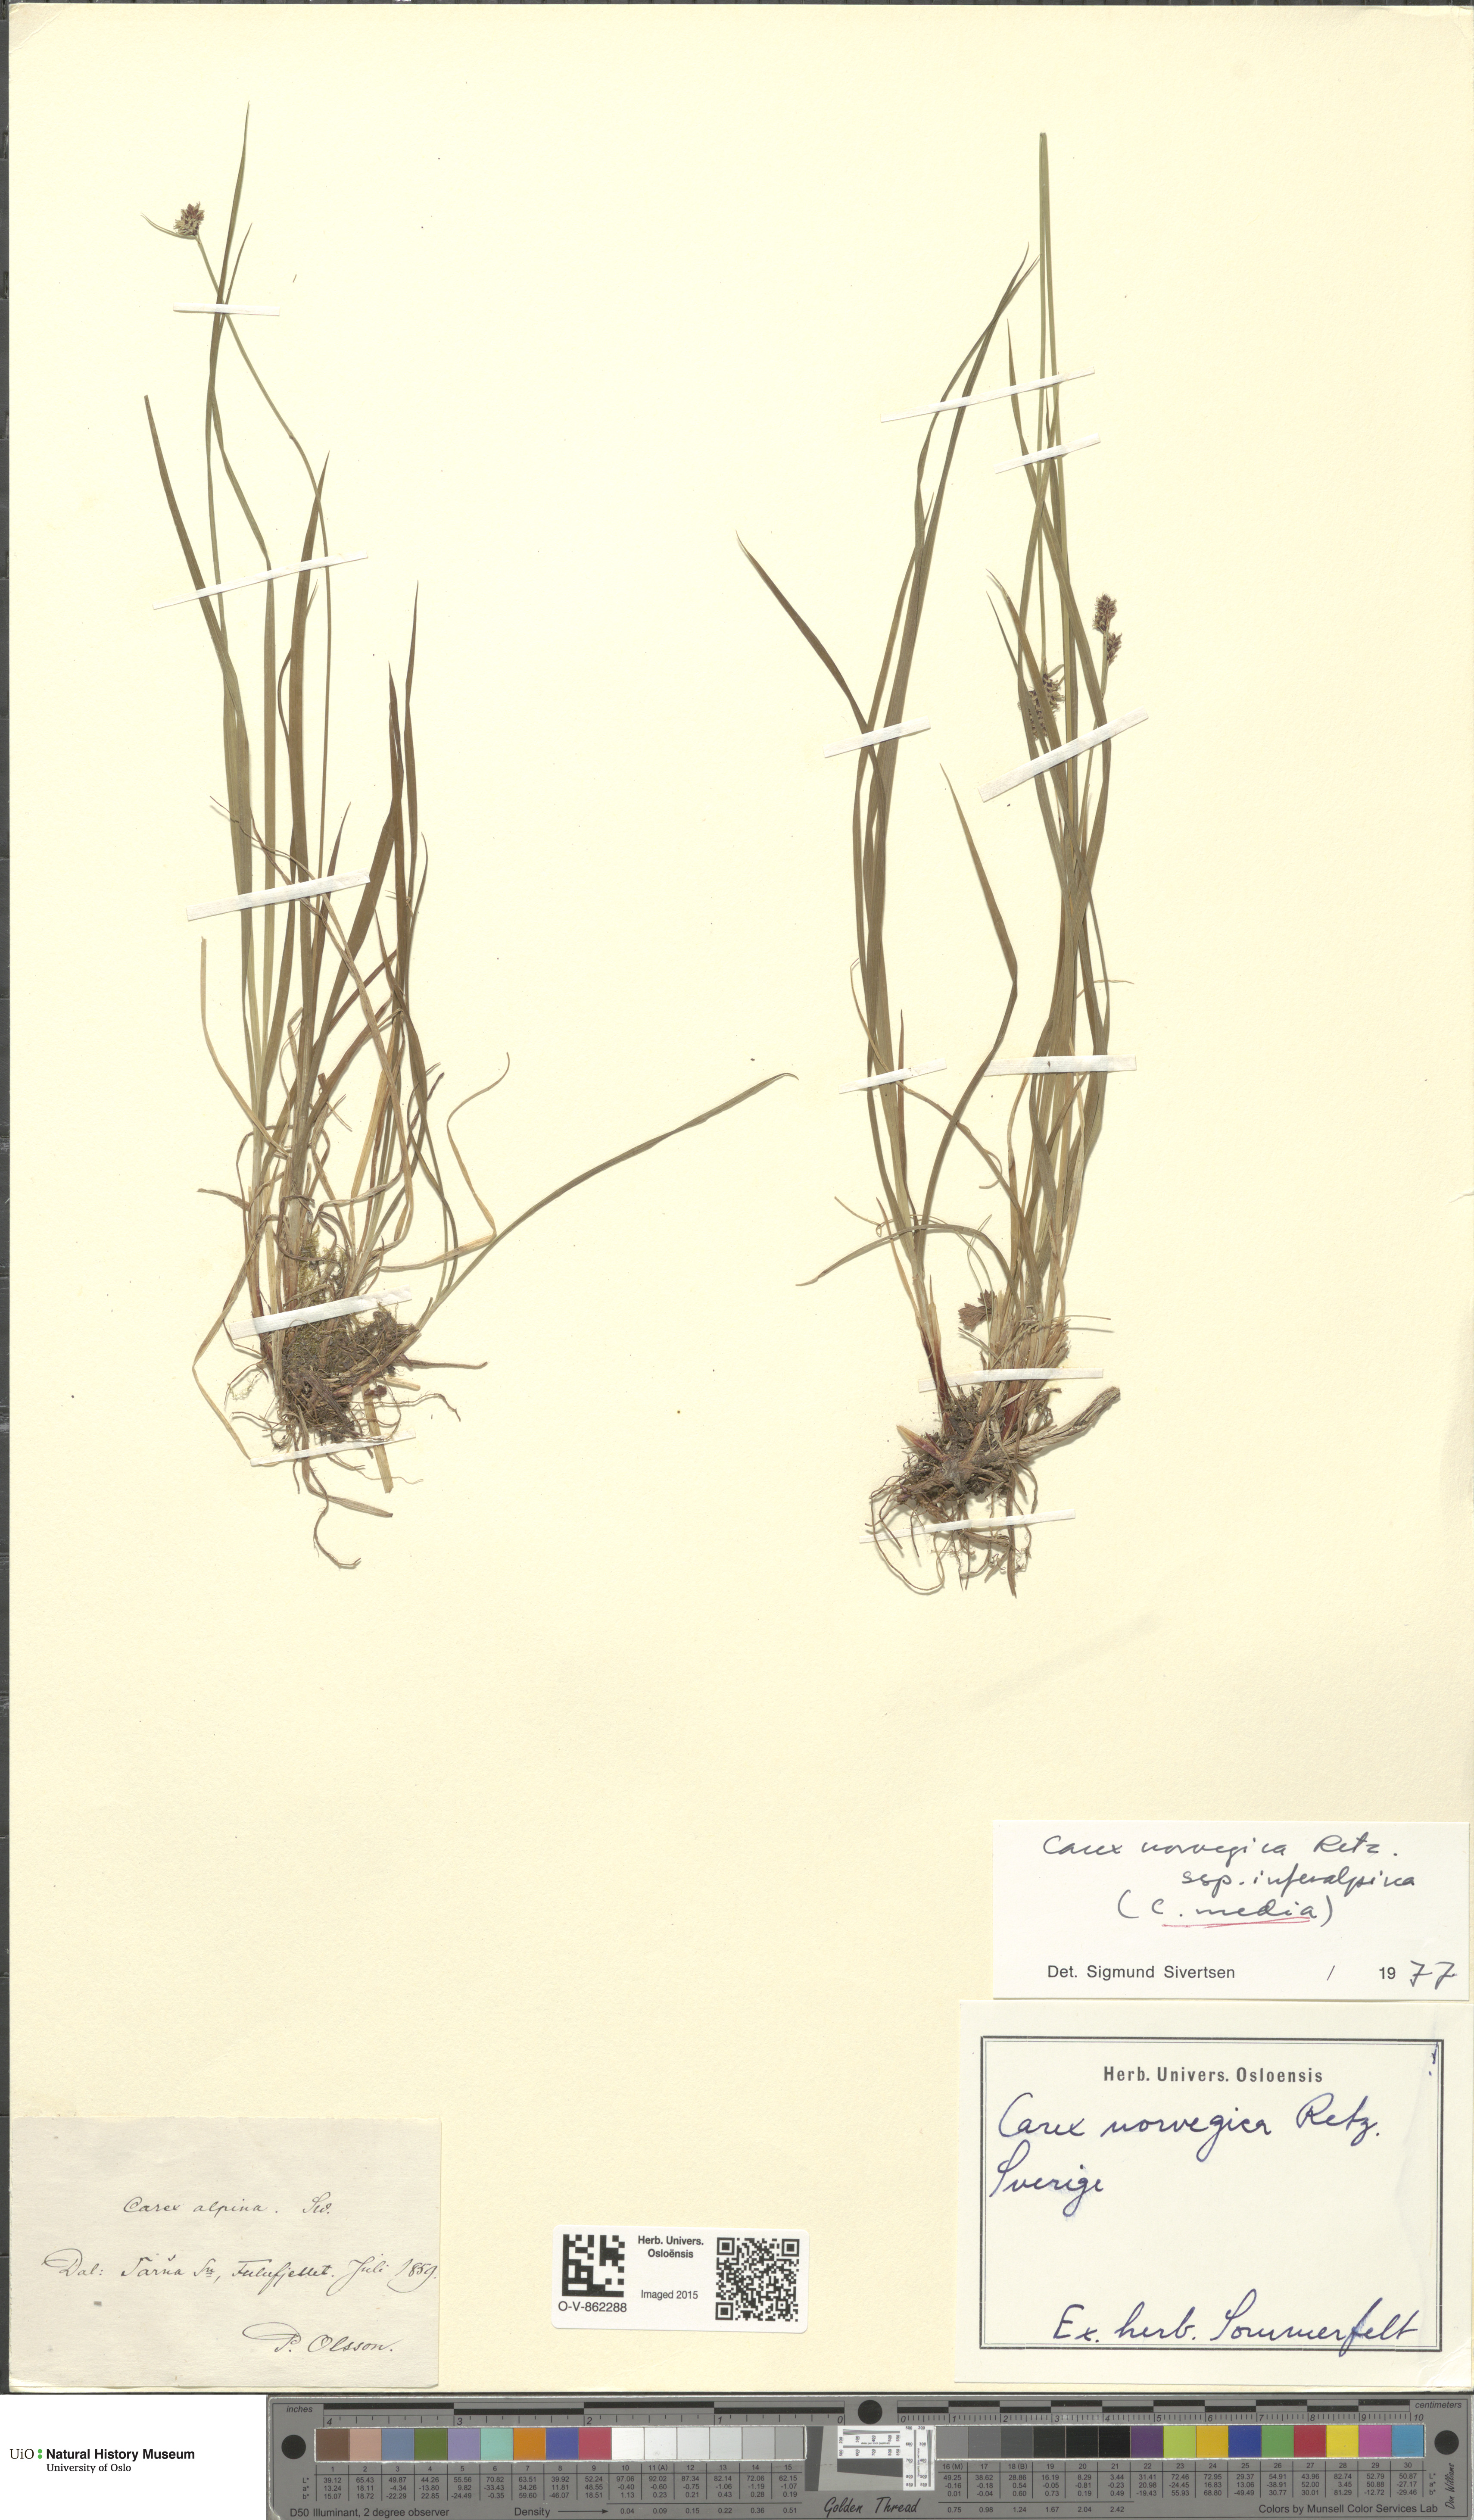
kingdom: Plantae
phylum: Tracheophyta
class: Liliopsida
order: Poales
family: Cyperaceae
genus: Carex
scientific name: Carex media
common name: Alpine sedge
